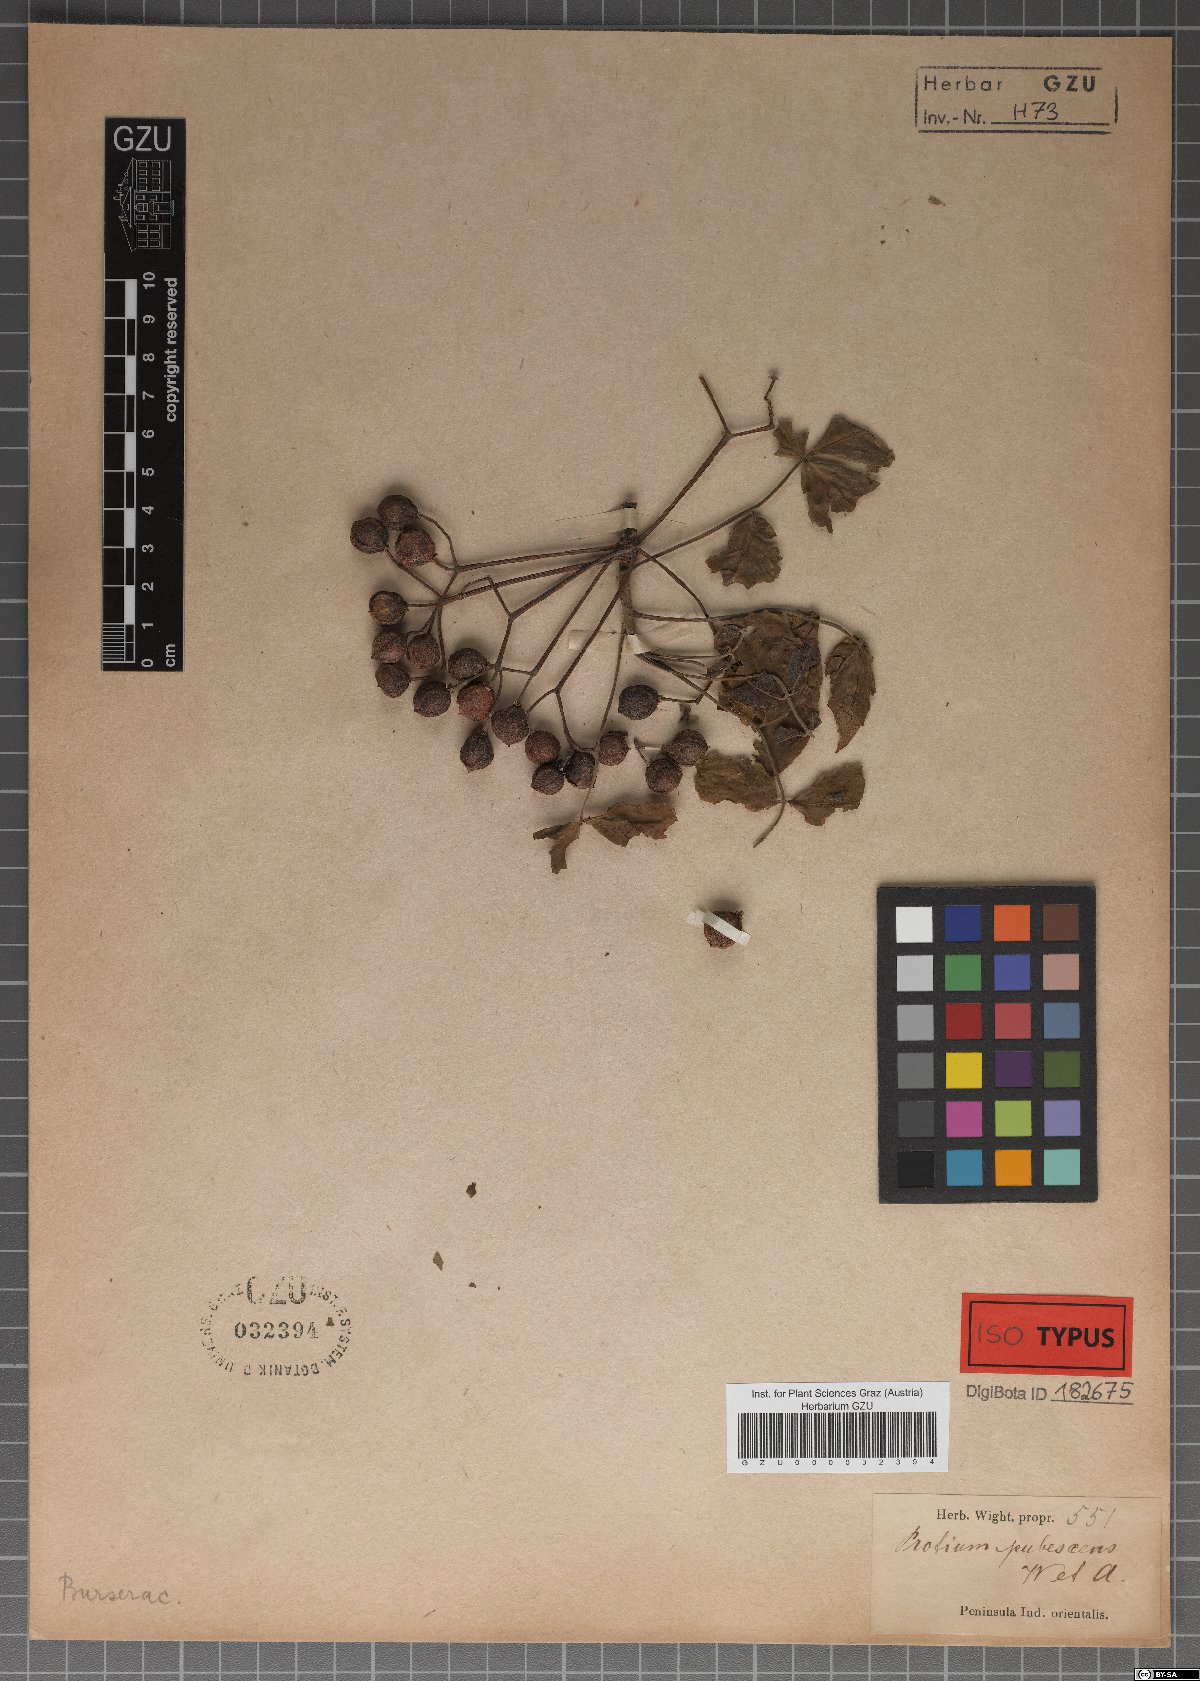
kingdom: Plantae
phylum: Tracheophyta
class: Magnoliopsida
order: Sapindales
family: Burseraceae
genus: Commiphora
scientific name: Commiphora caudata
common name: Hill-mango
